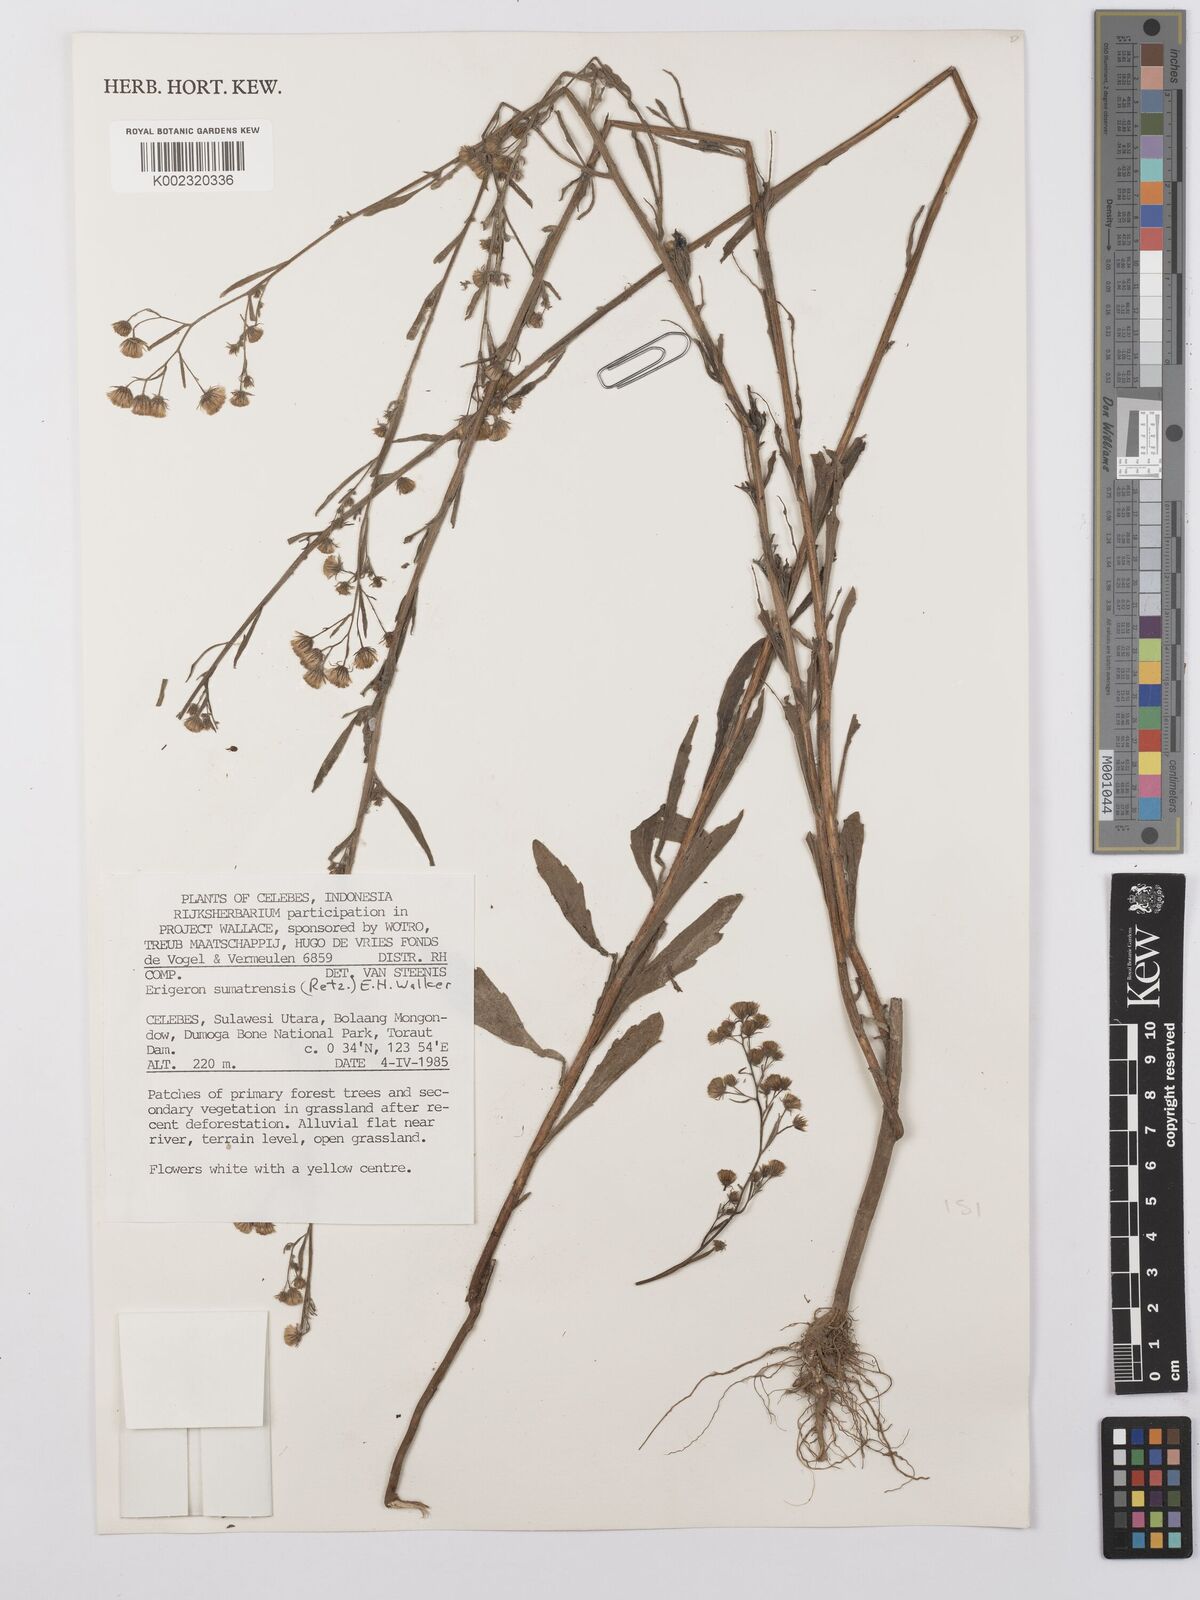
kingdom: Plantae
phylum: Tracheophyta
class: Magnoliopsida
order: Asterales
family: Asteraceae
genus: Erigeron
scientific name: Erigeron sumatrensis
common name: Daisy
